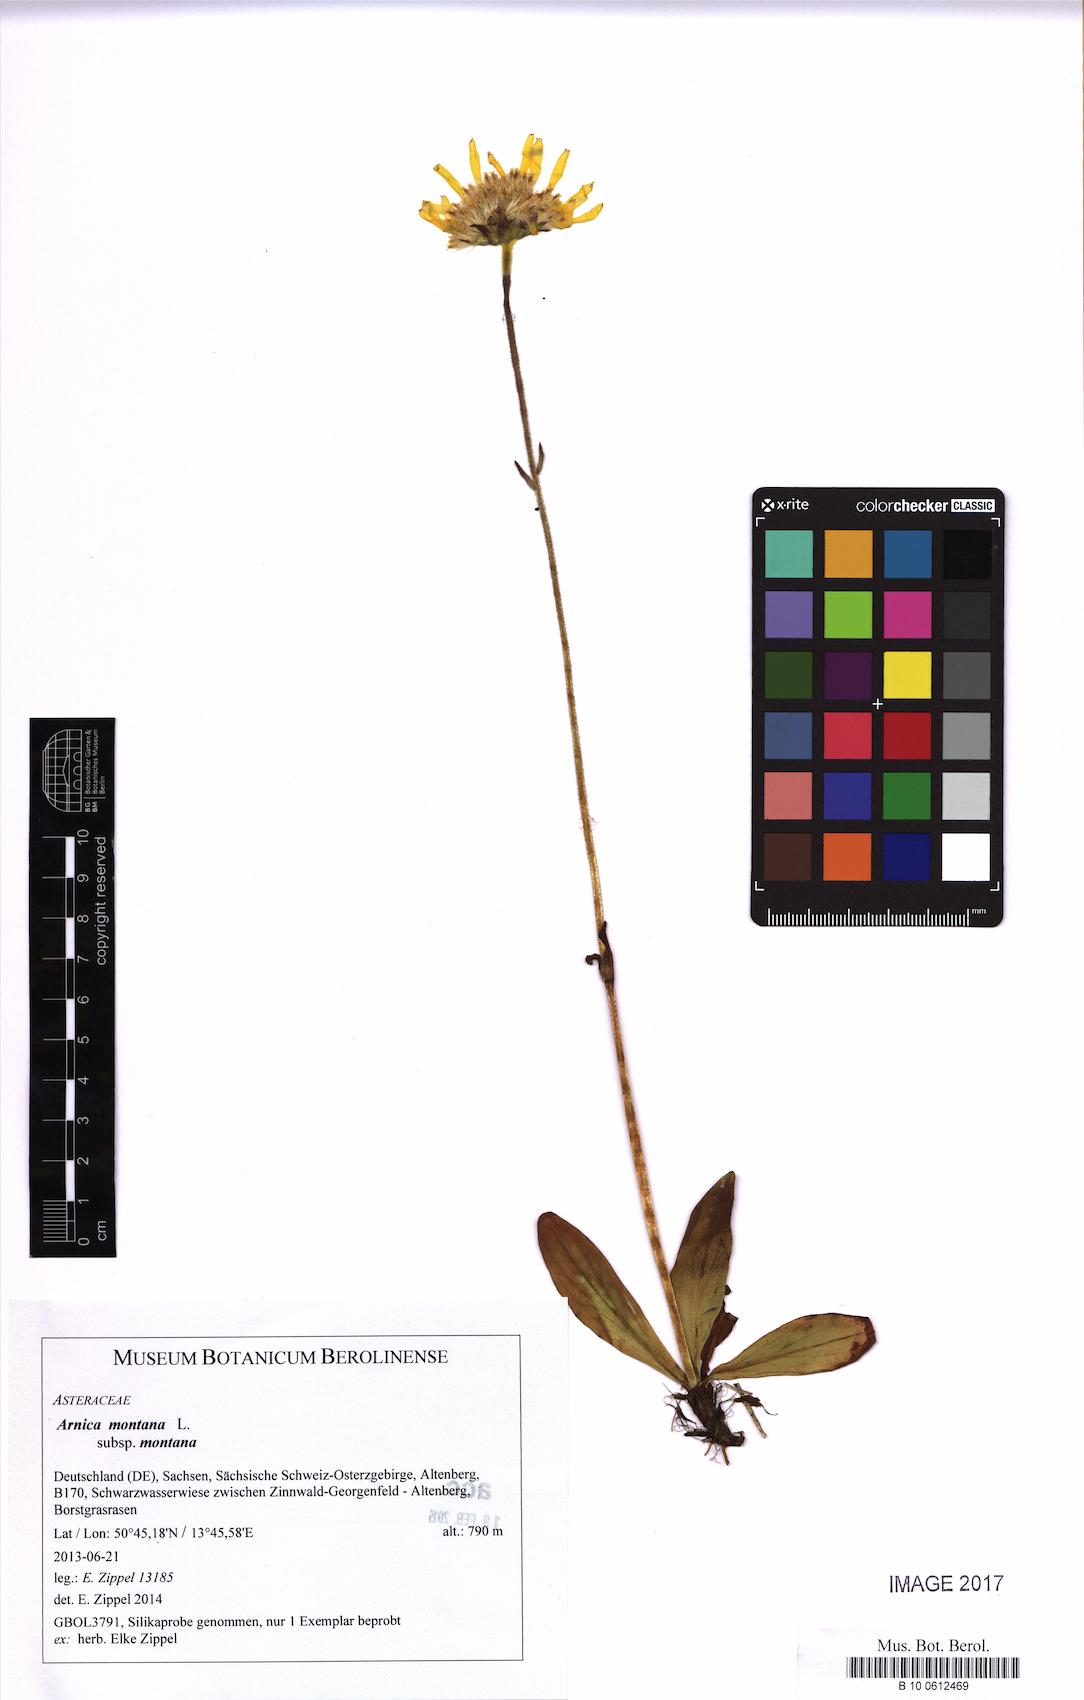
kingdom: Plantae
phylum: Tracheophyta
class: Magnoliopsida
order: Asterales
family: Asteraceae
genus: Arnica
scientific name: Arnica montana
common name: Leopard's bane
